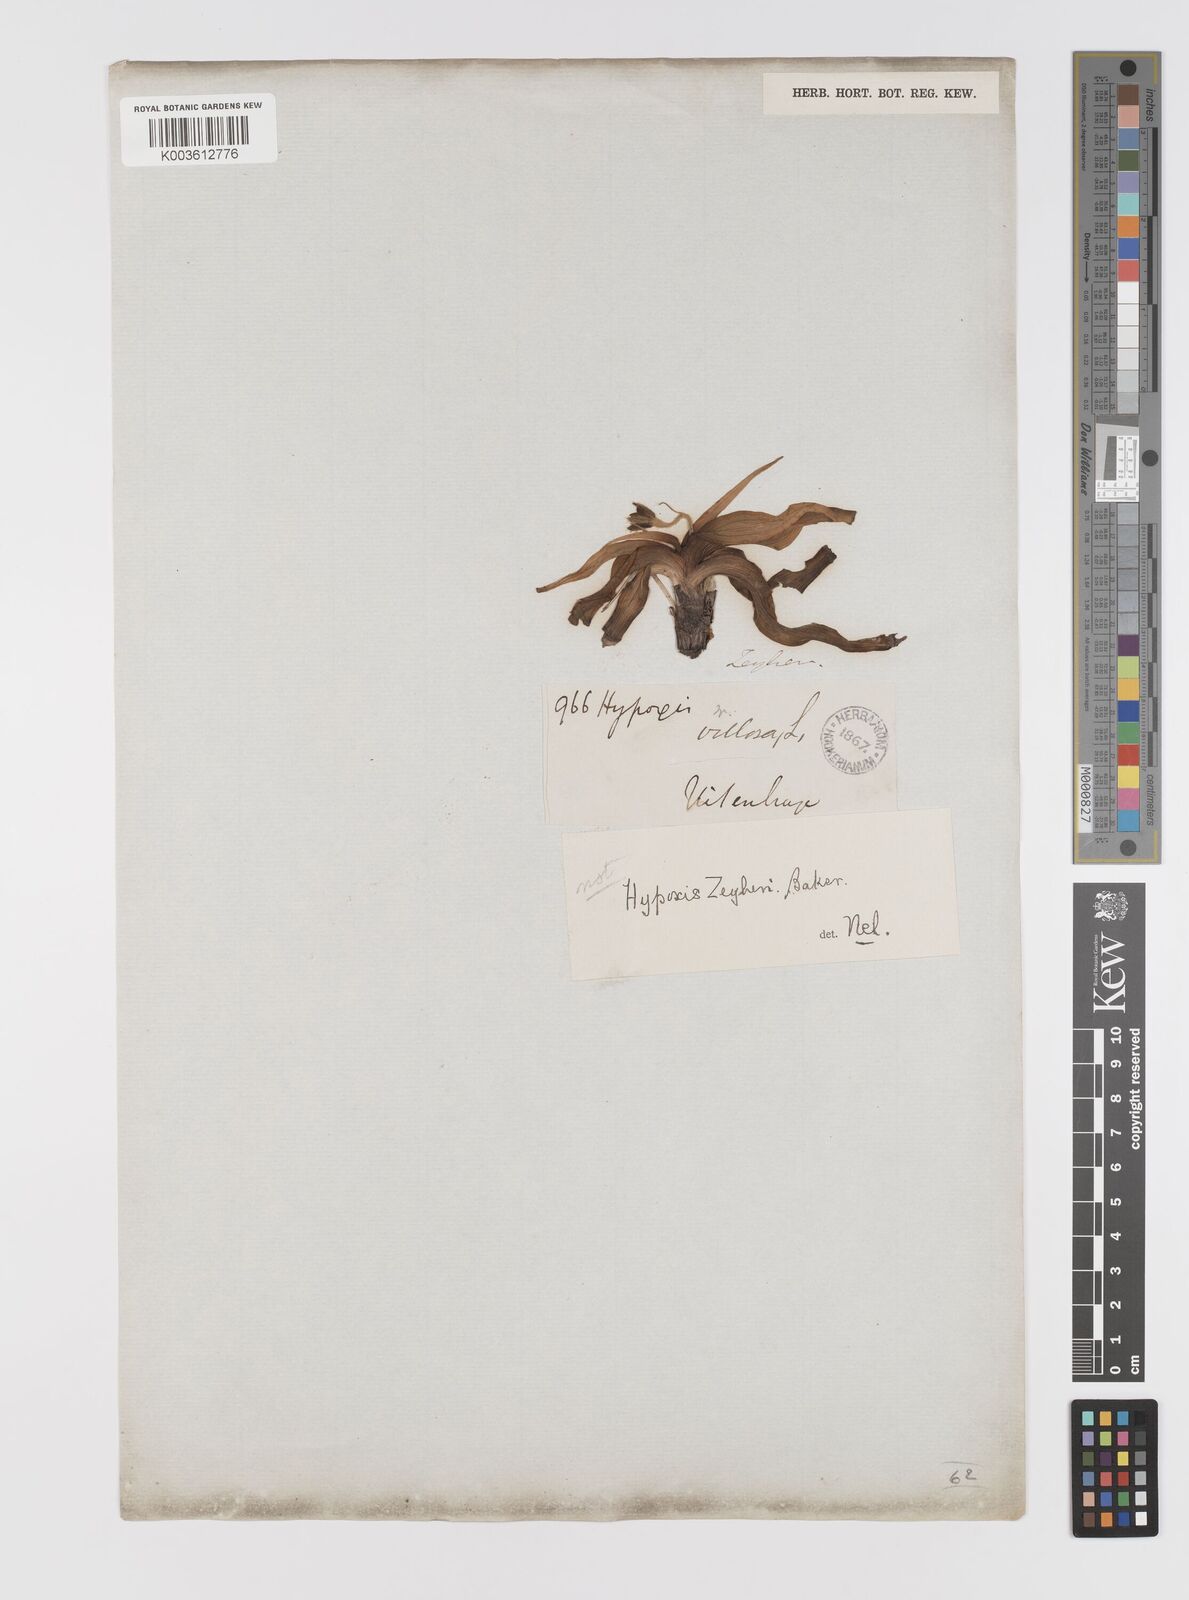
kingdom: Plantae
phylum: Tracheophyta
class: Liliopsida
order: Asparagales
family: Hypoxidaceae
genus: Hypoxis
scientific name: Hypoxis zeyheri
